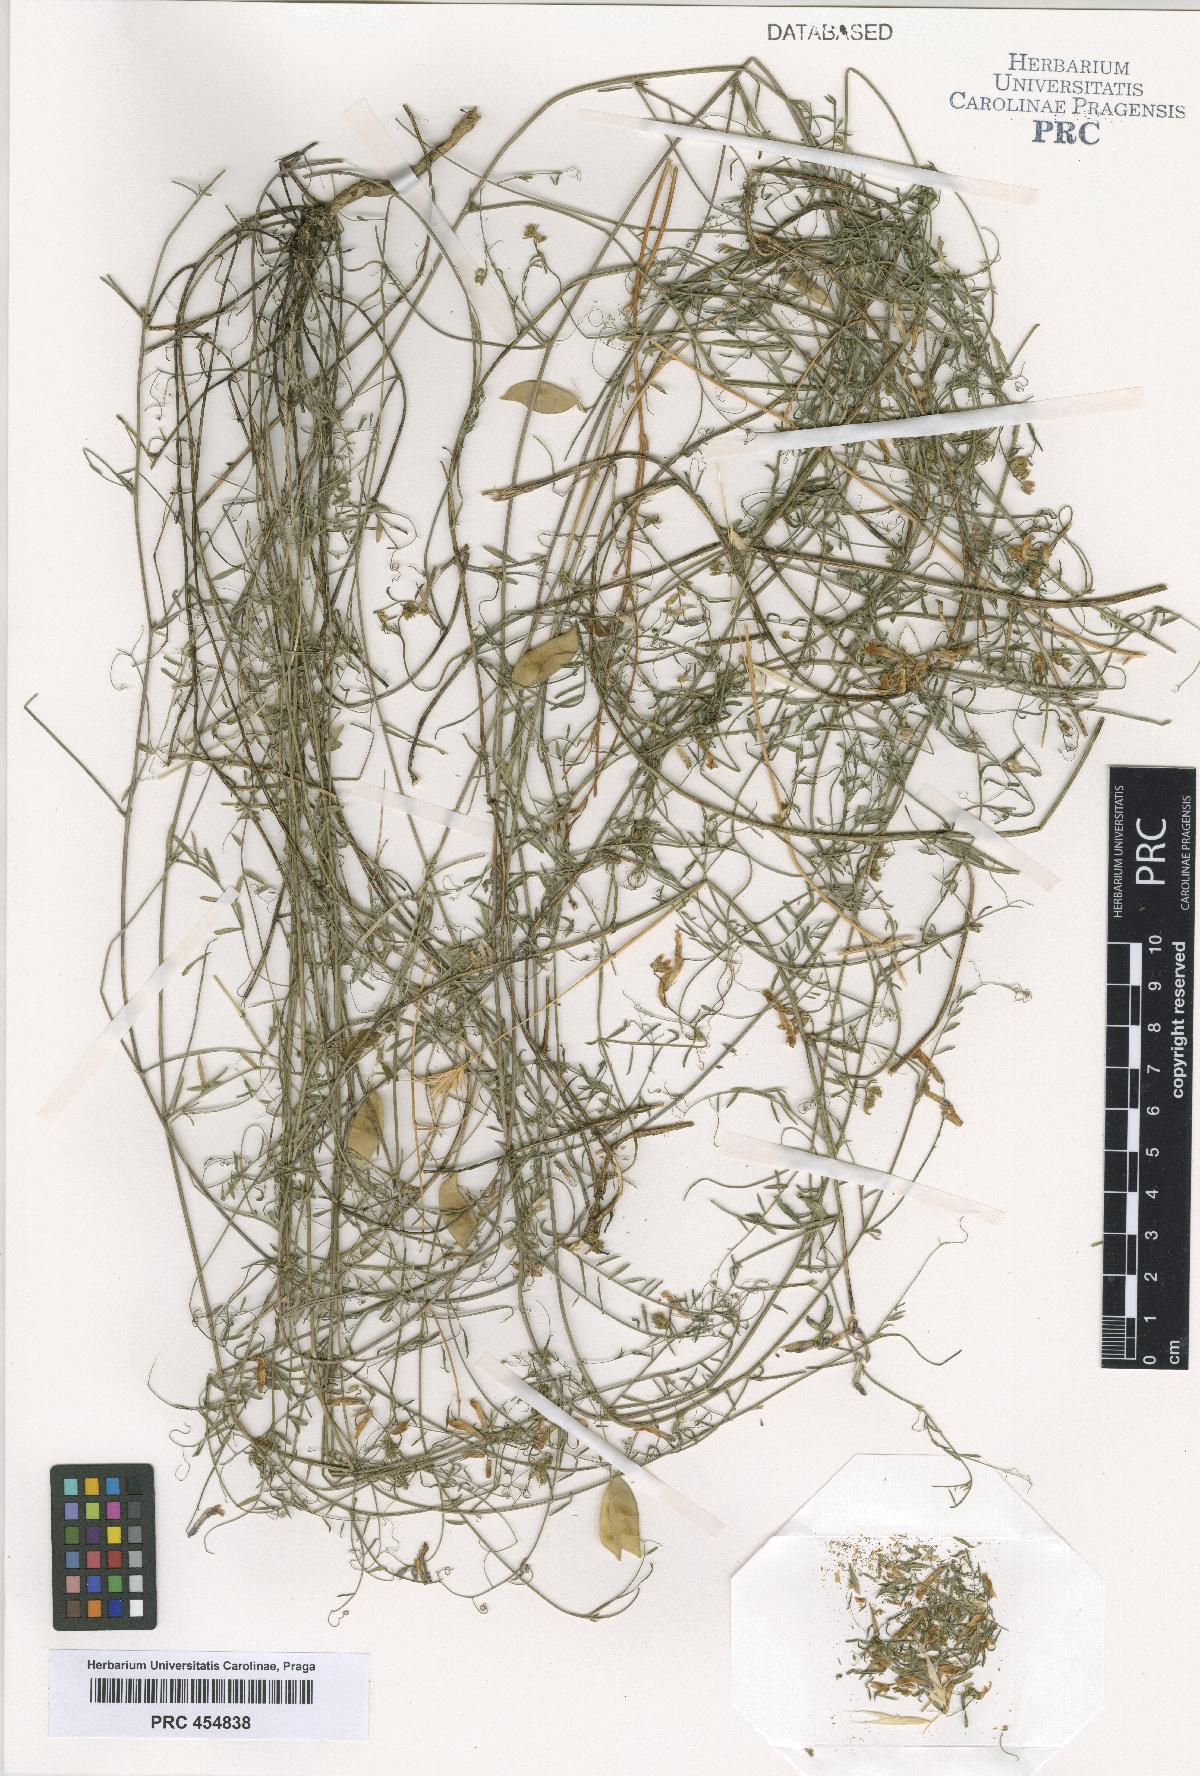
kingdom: Plantae
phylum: Tracheophyta
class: Magnoliopsida
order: Fabales
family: Fabaceae
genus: Vicia
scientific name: Vicia villosa
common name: Fodder vetch
